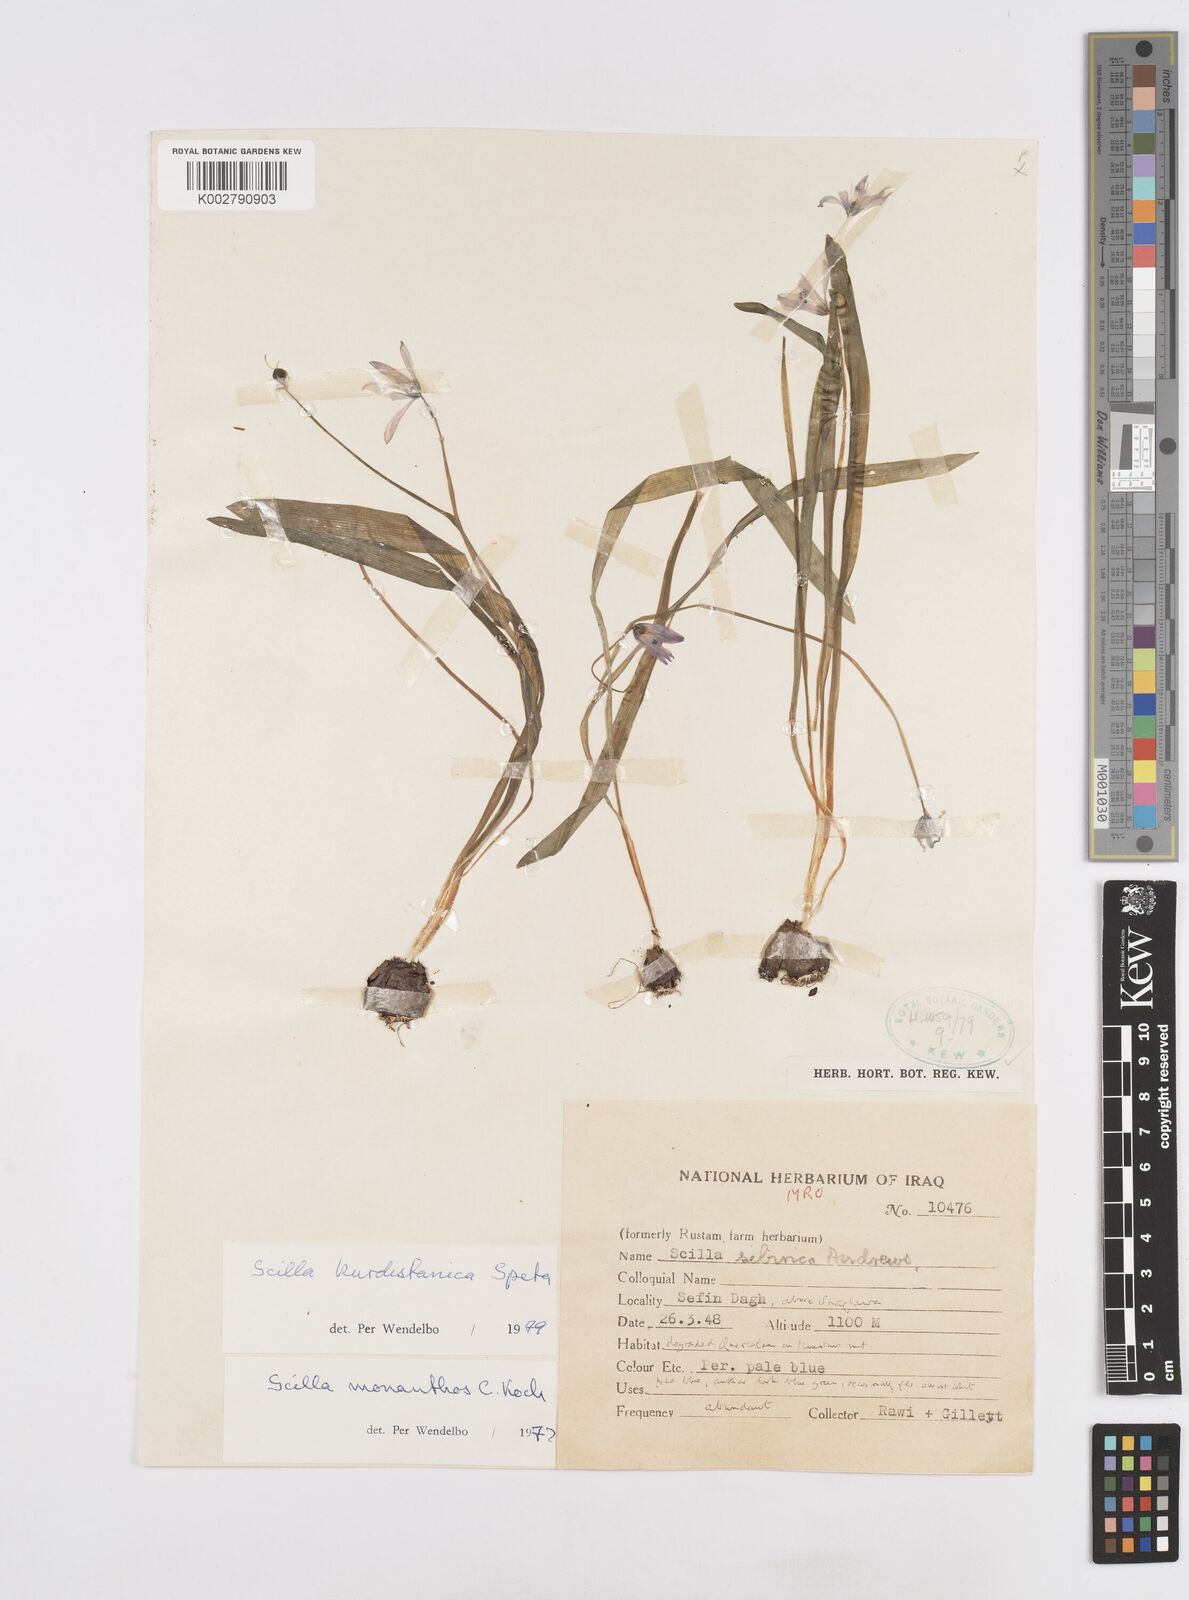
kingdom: Plantae
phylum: Tracheophyta
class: Liliopsida
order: Asparagales
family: Asparagaceae
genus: Scilla
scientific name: Scilla kurdistanica
